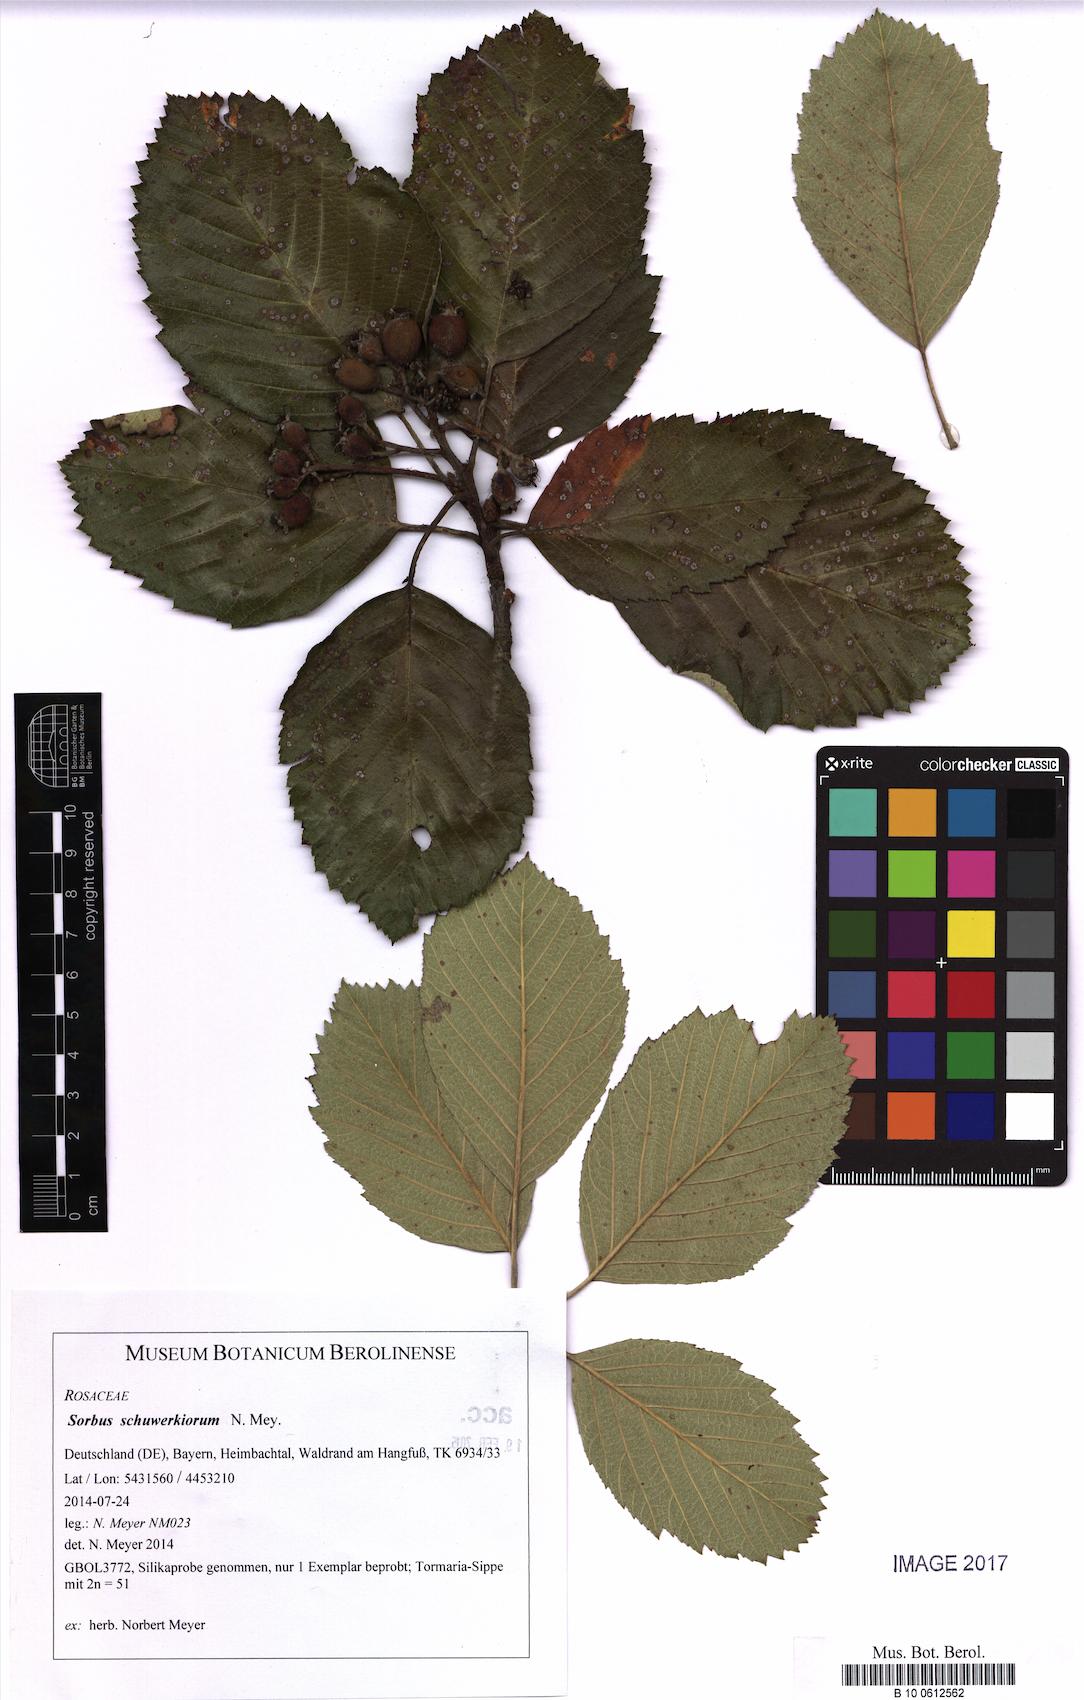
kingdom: Plantae
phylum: Tracheophyta
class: Magnoliopsida
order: Rosales
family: Rosaceae
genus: Karpatiosorbus
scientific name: Karpatiosorbus schuwerkiorum
